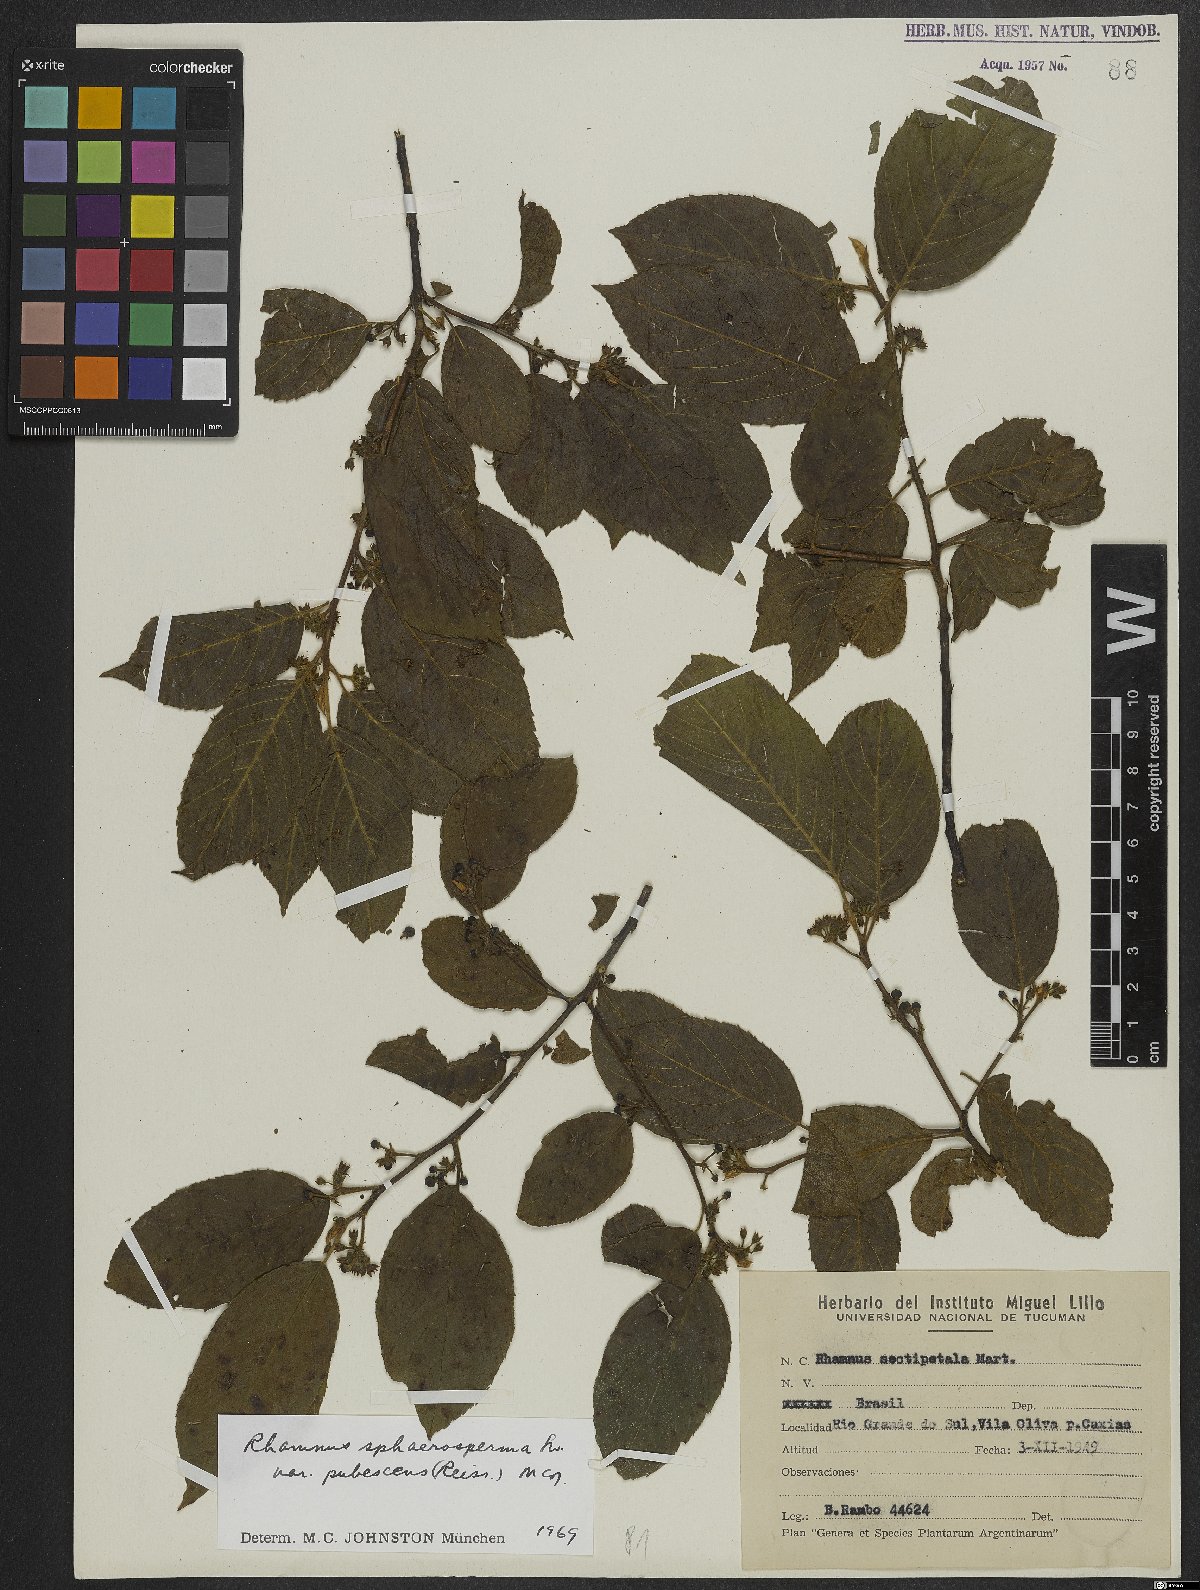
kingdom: Plantae
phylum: Tracheophyta
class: Magnoliopsida
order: Rosales
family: Rhamnaceae
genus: Frangula
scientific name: Frangula sphaerosperma
